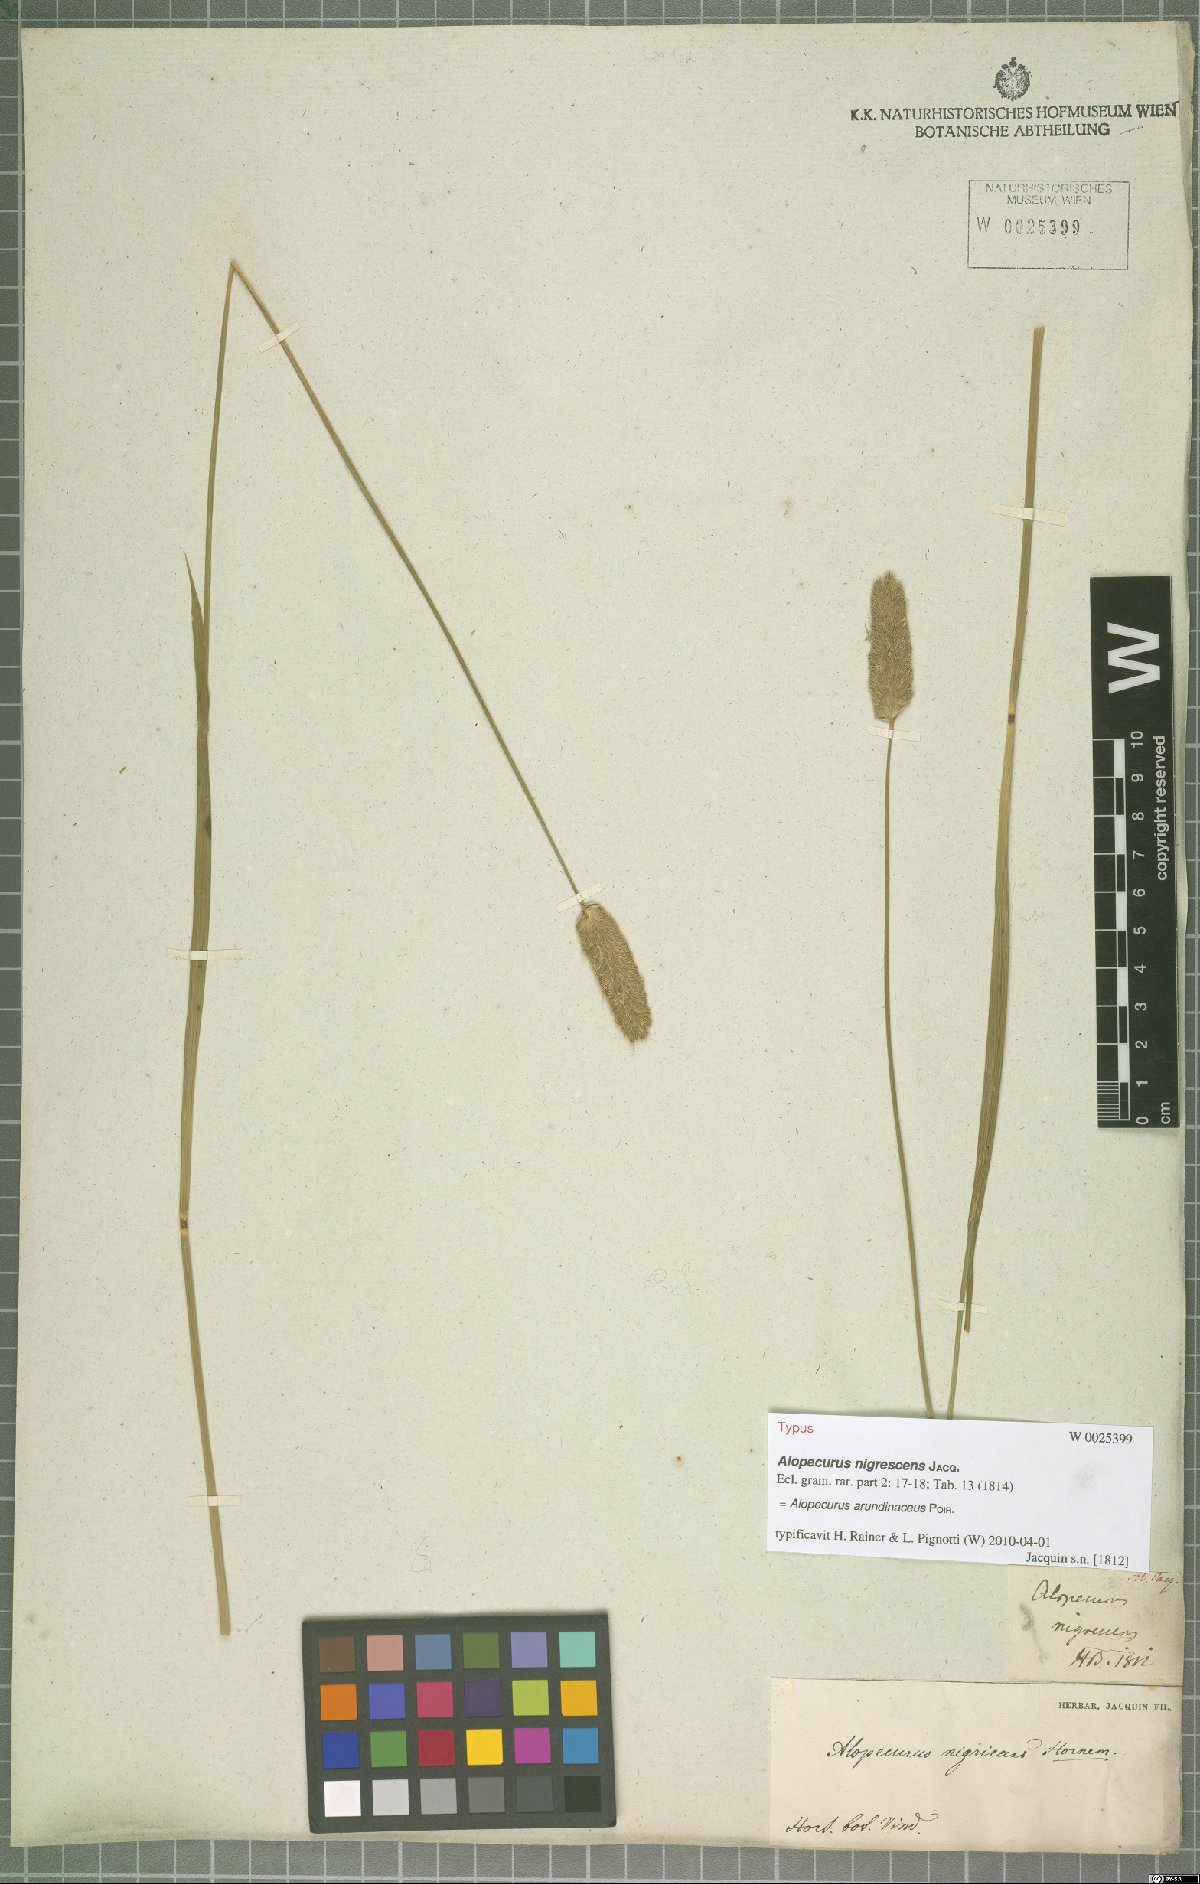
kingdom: Plantae
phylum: Tracheophyta
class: Liliopsida
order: Poales
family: Poaceae
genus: Alopecurus
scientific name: Alopecurus arundinaceus
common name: Creeping meadow foxtail
